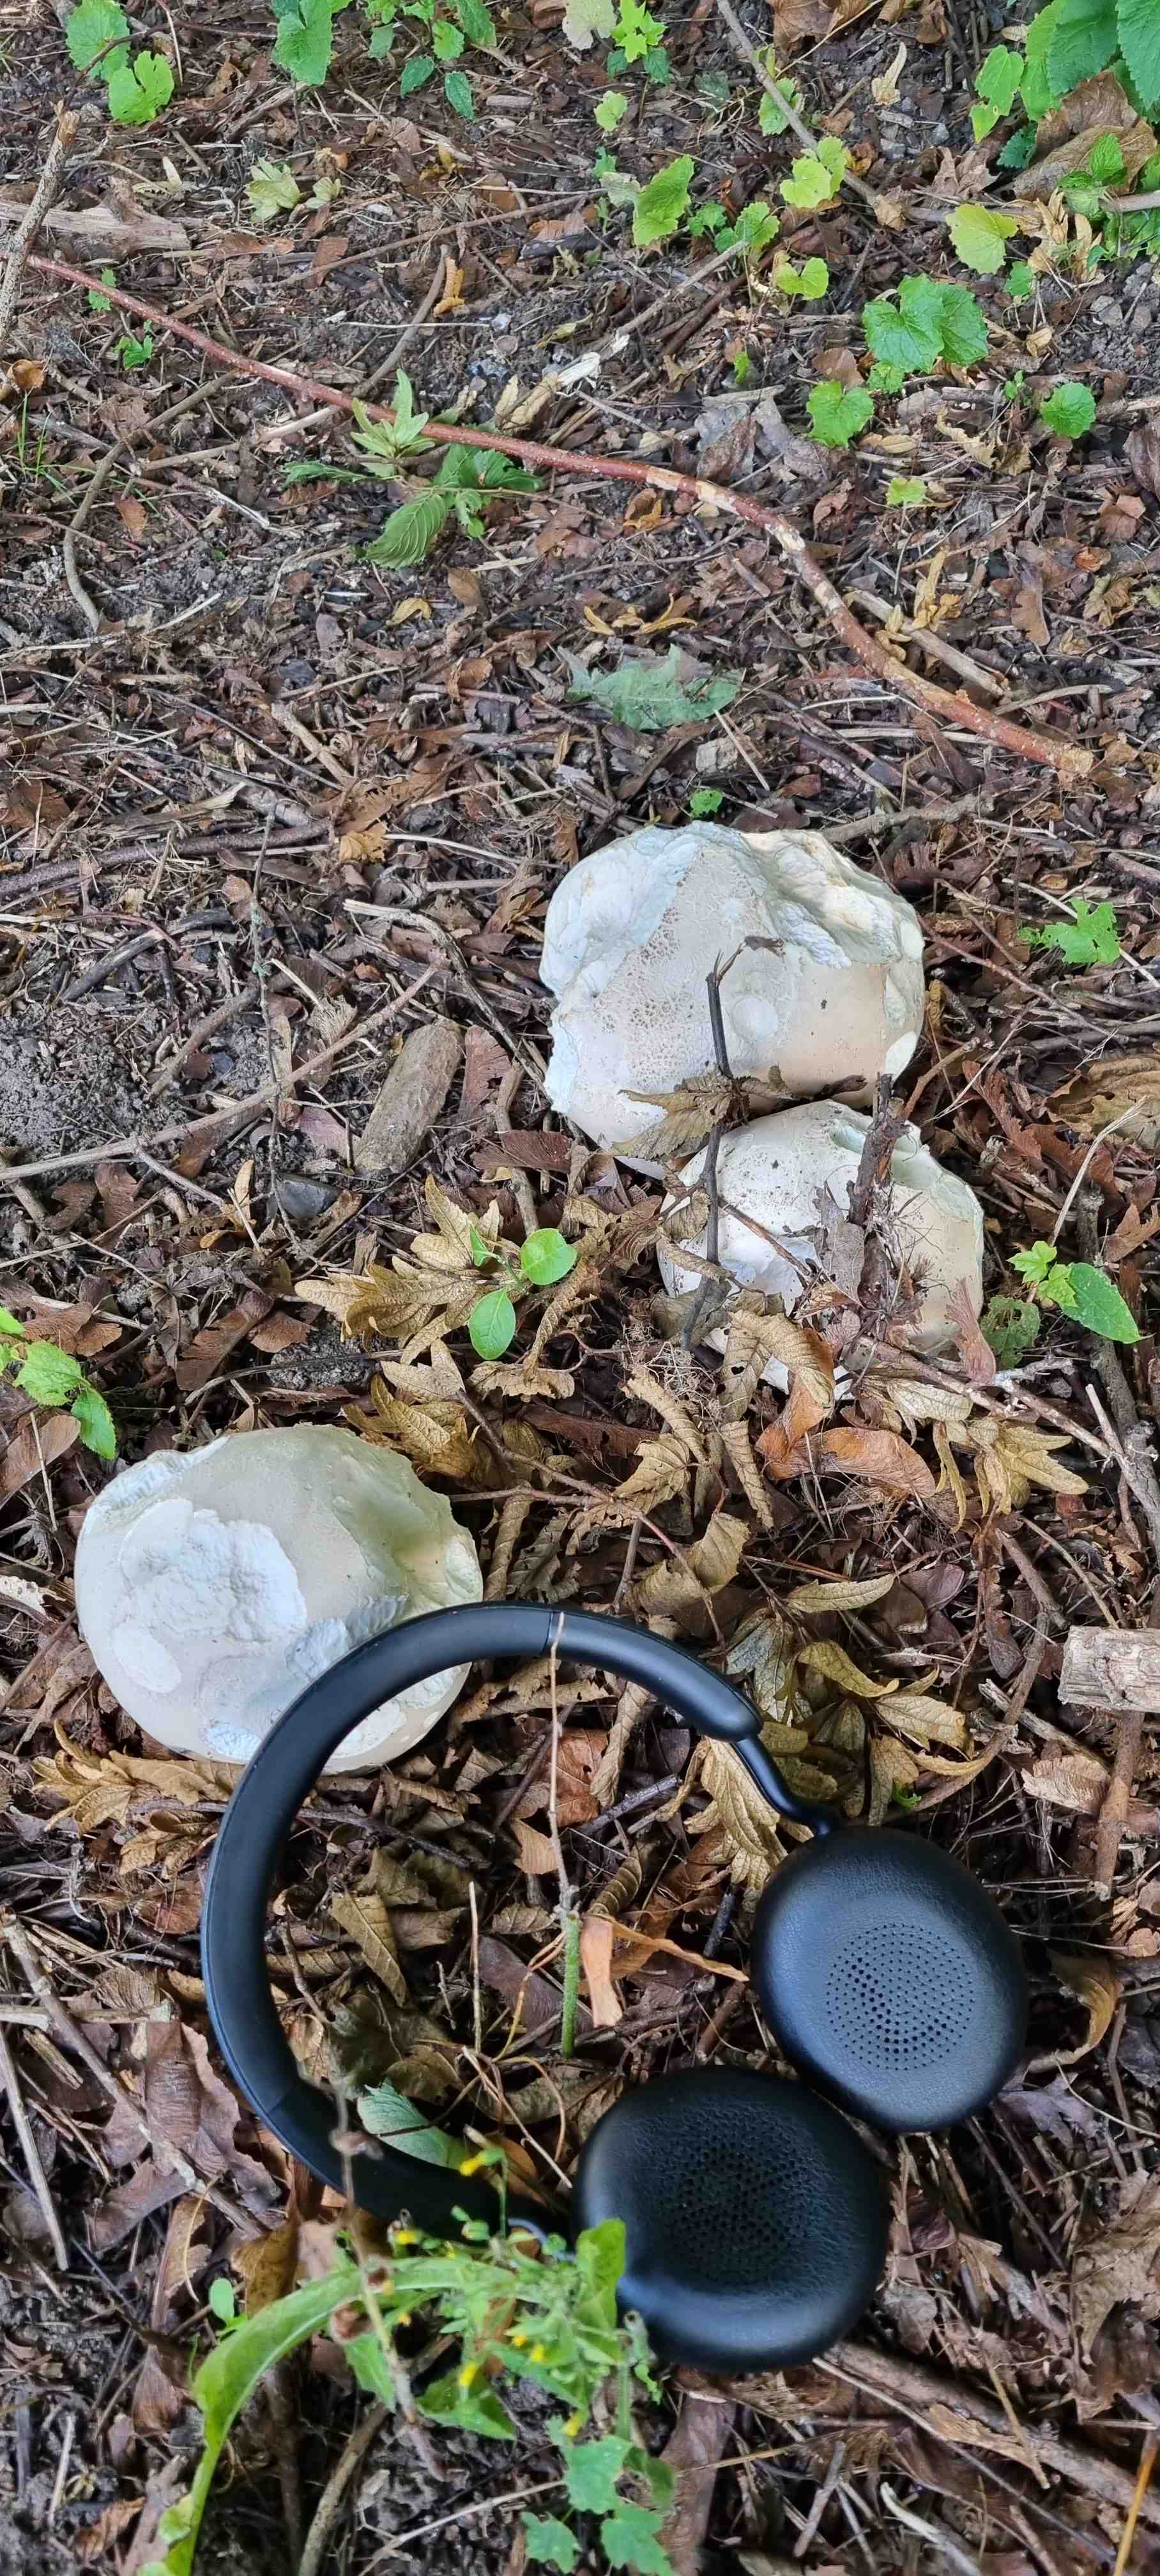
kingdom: Fungi
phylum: Basidiomycota
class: Agaricomycetes
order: Agaricales
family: Lycoperdaceae
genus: Calvatia
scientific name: Calvatia gigantea
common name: kæmpestøvbold
